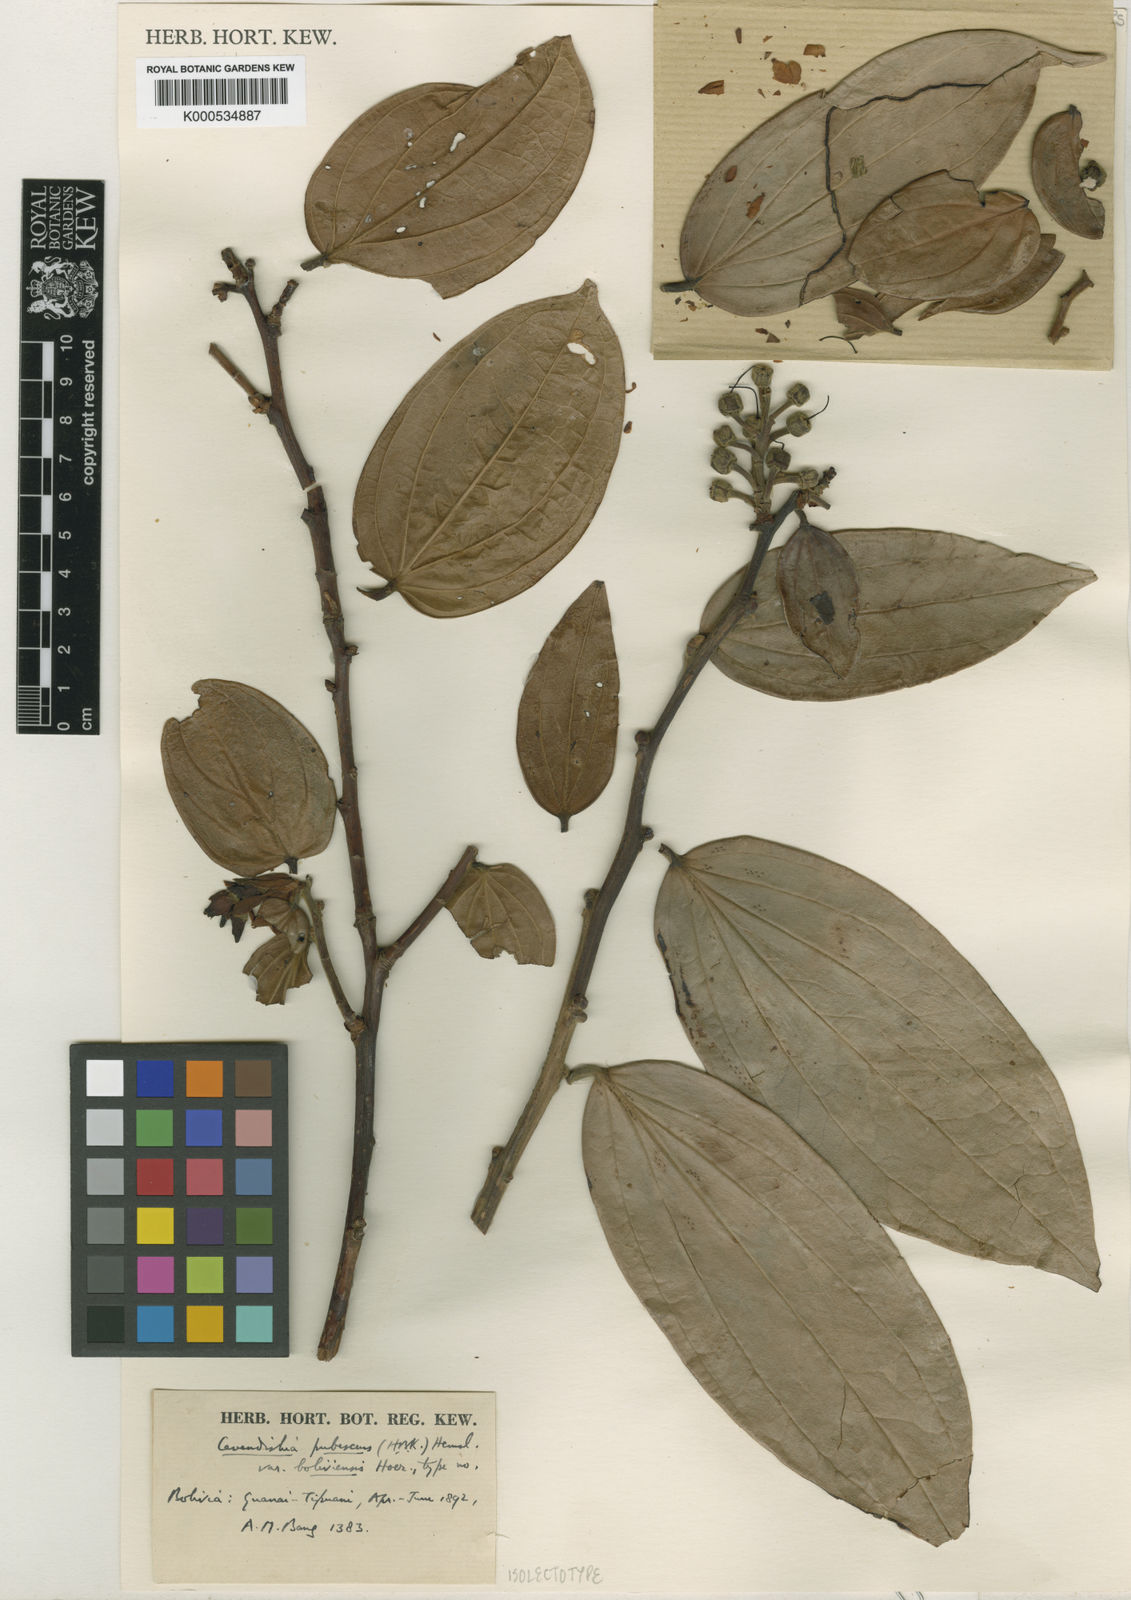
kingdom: Plantae
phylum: Tracheophyta
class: Magnoliopsida
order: Ericales
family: Ericaceae
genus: Cavendishia
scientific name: Cavendishia pubescens
